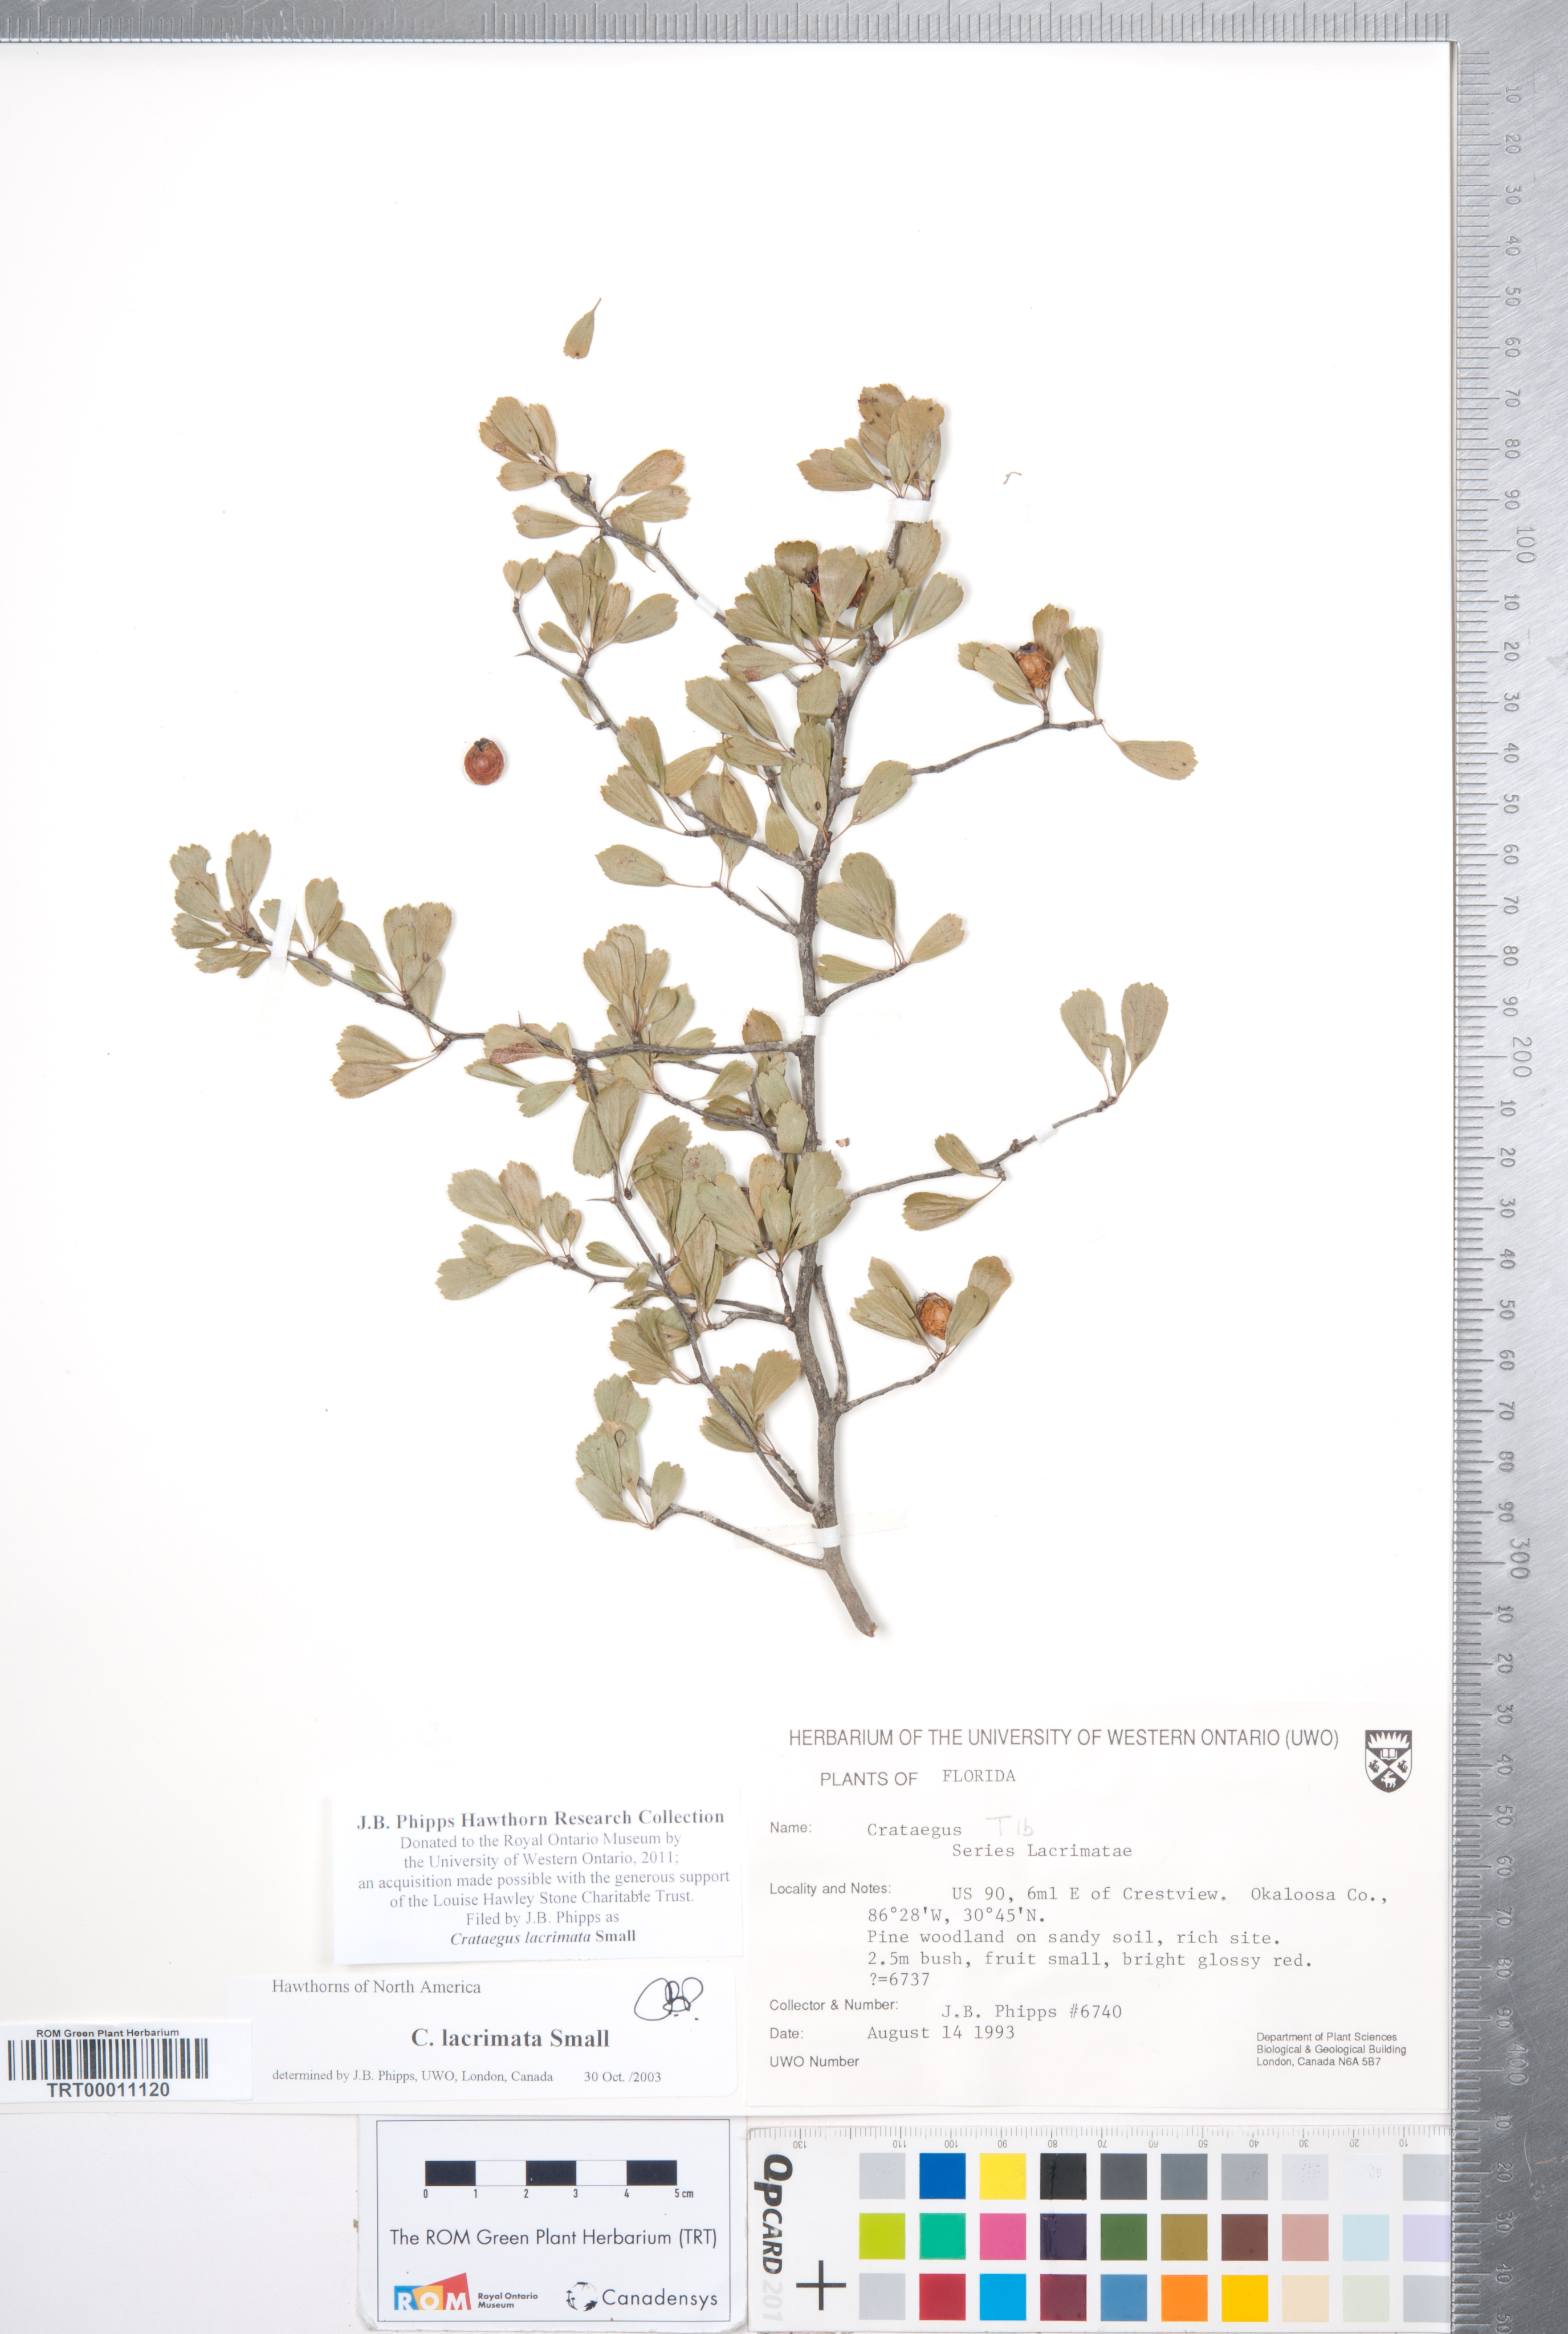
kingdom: Plantae
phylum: Tracheophyta
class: Magnoliopsida
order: Rosales
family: Rosaceae
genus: Crataegus
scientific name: Crataegus lacrimata
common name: Weeping hawthorn
